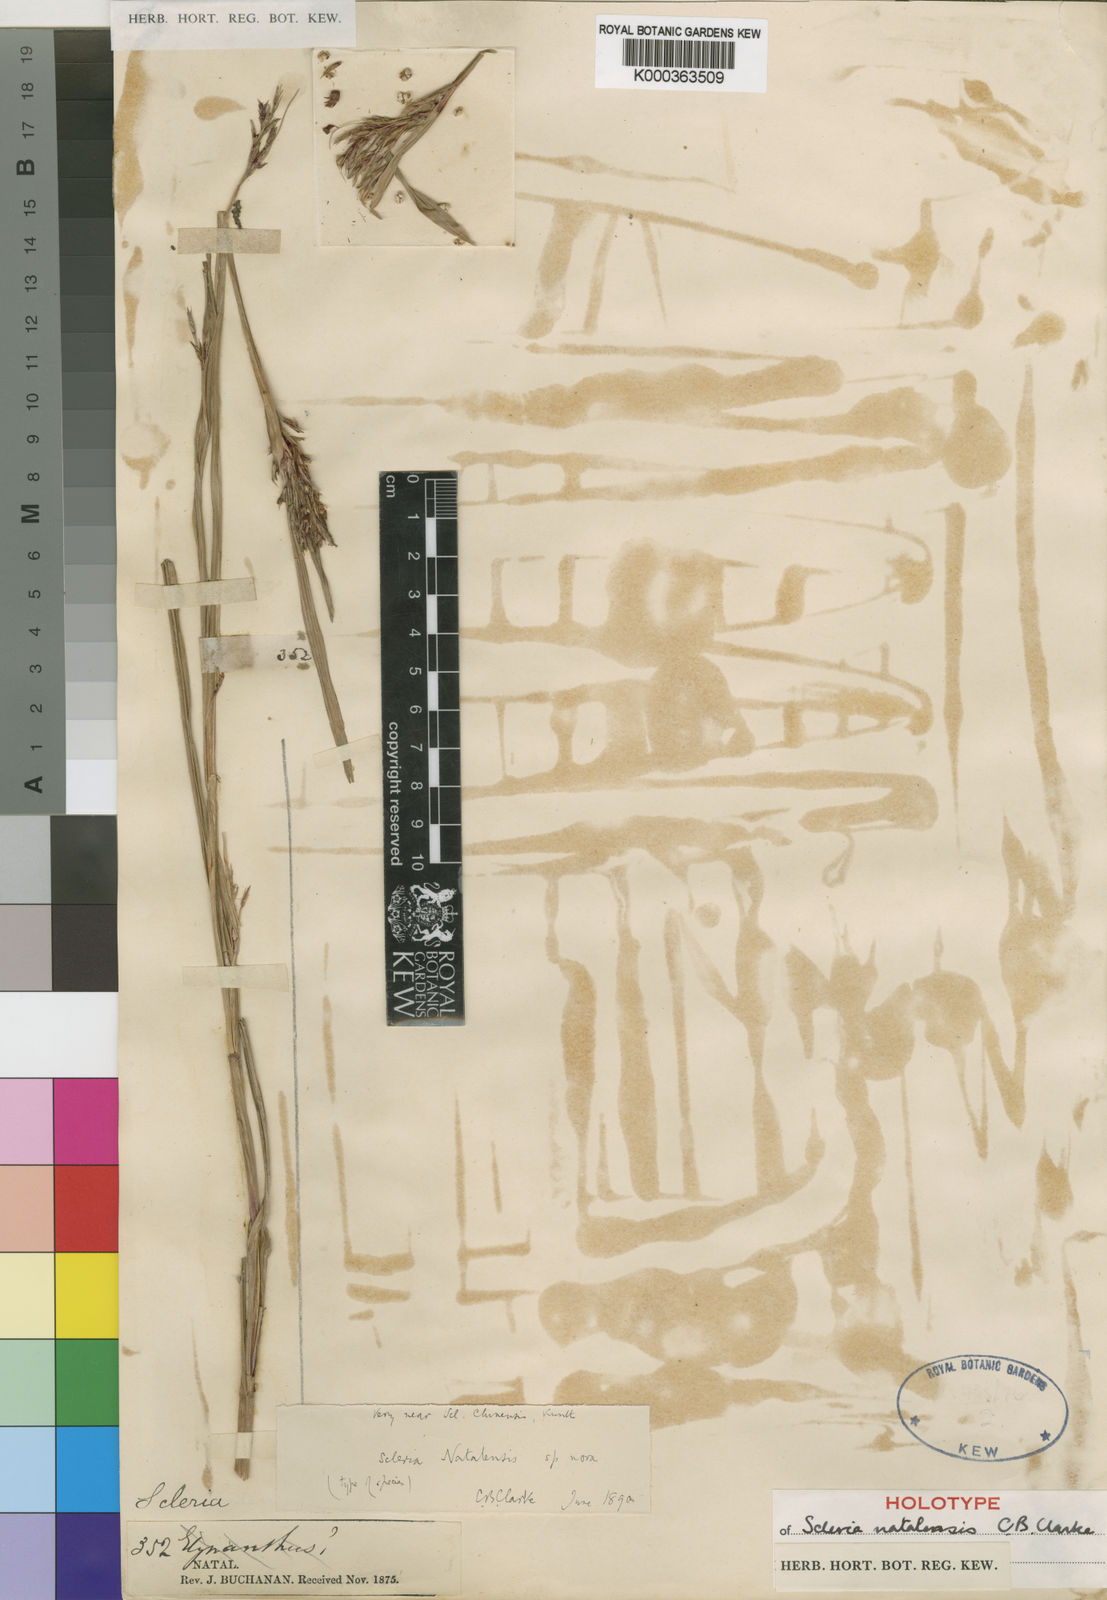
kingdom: Plantae
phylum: Tracheophyta
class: Liliopsida
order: Poales
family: Cyperaceae
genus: Scleria
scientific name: Scleria natalensis
